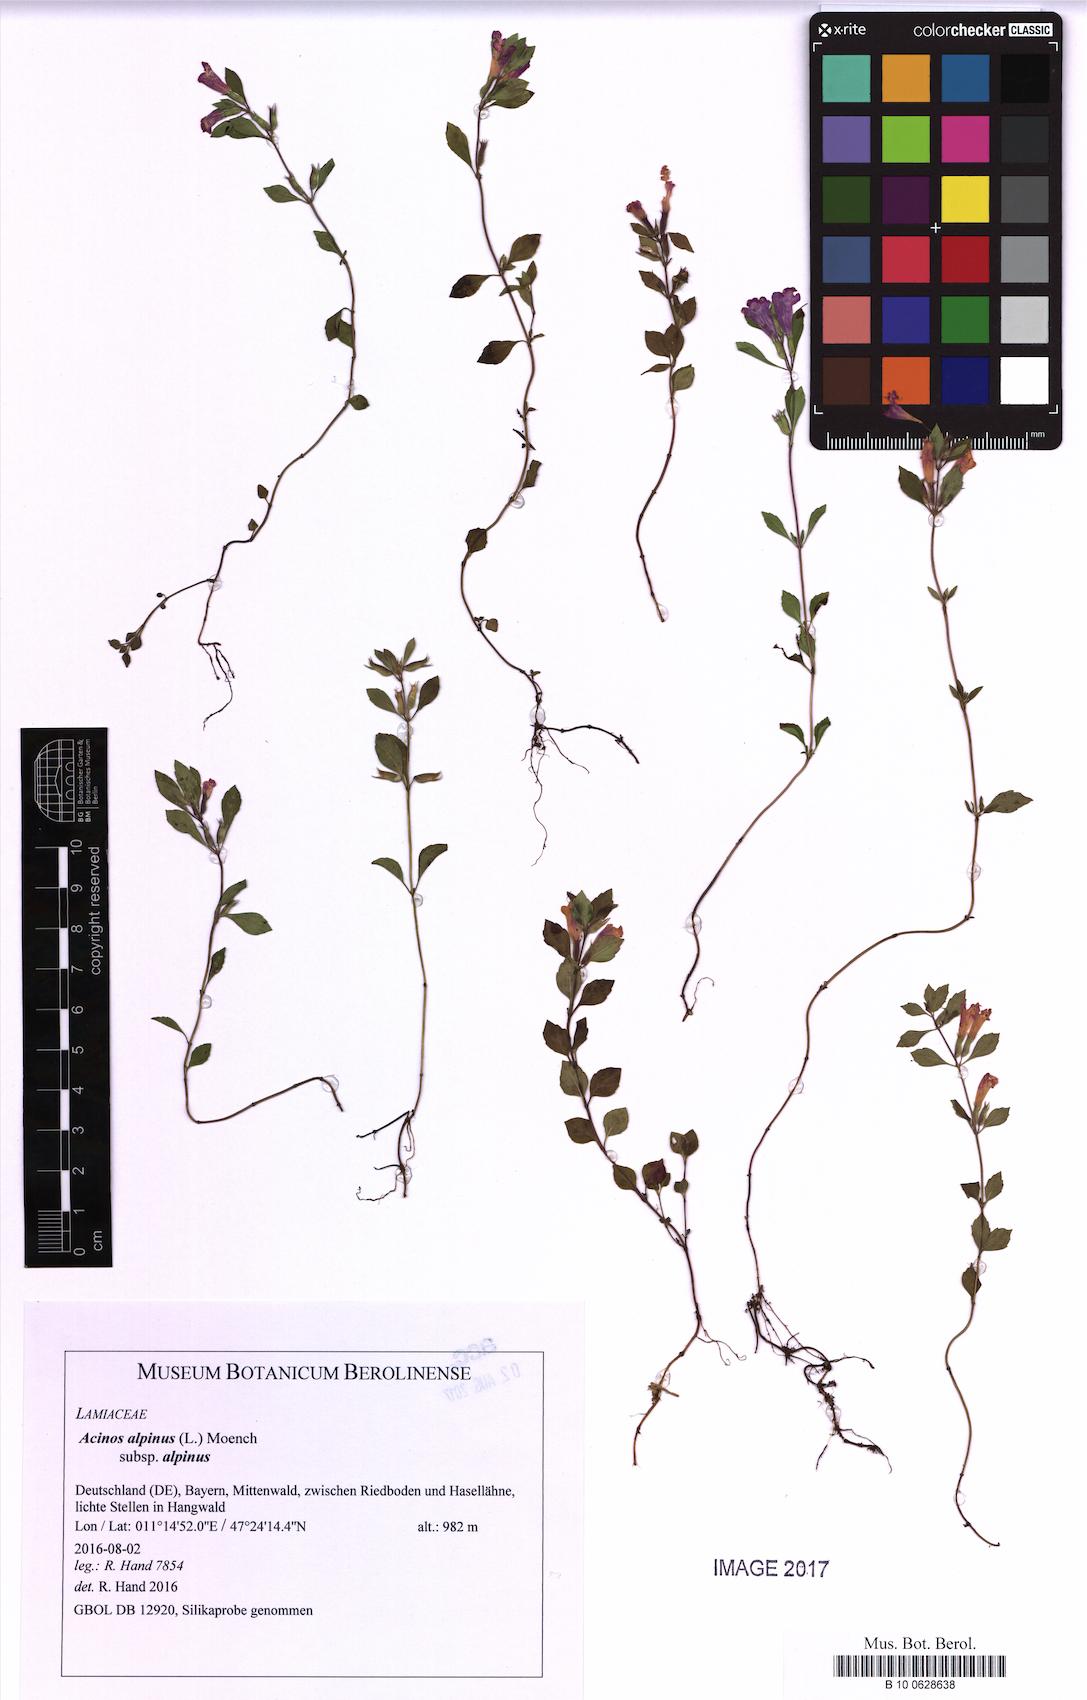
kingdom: Plantae
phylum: Tracheophyta
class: Magnoliopsida
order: Lamiales
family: Lamiaceae
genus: Clinopodium
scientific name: Clinopodium alpinum
